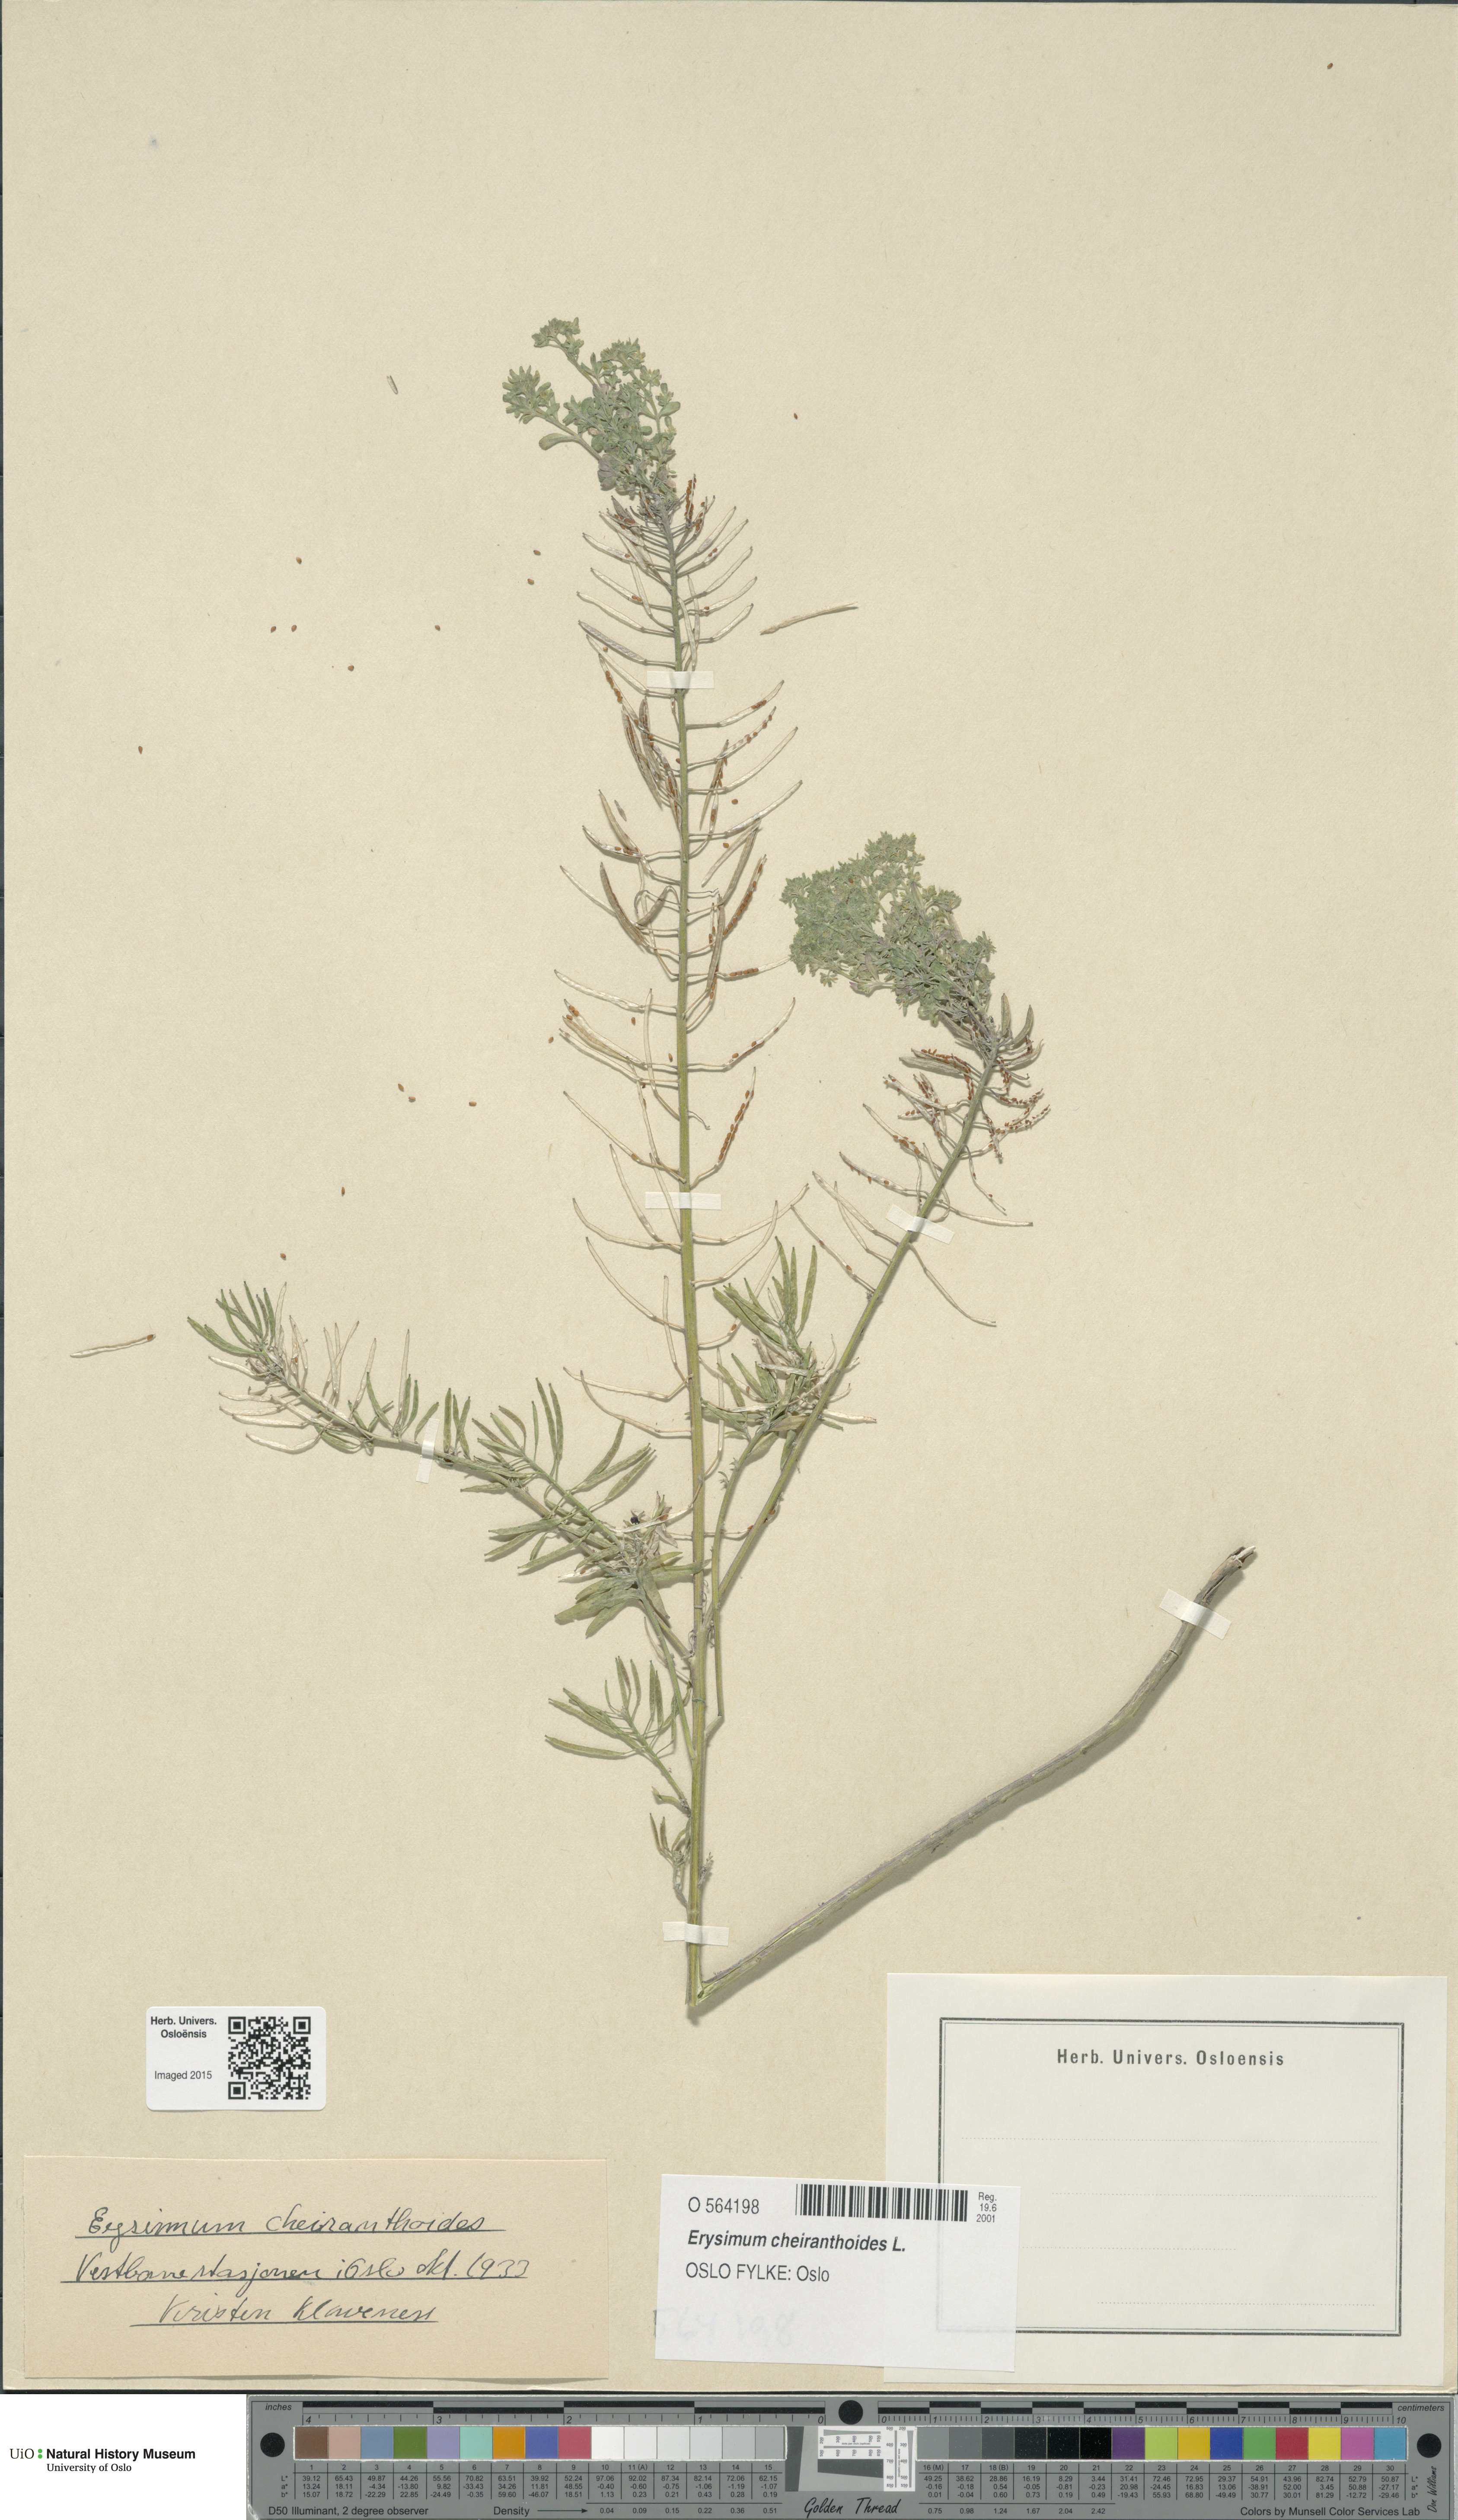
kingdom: Plantae
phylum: Tracheophyta
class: Magnoliopsida
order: Brassicales
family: Brassicaceae
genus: Erysimum
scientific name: Erysimum cheiranthoides
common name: Treacle mustard
